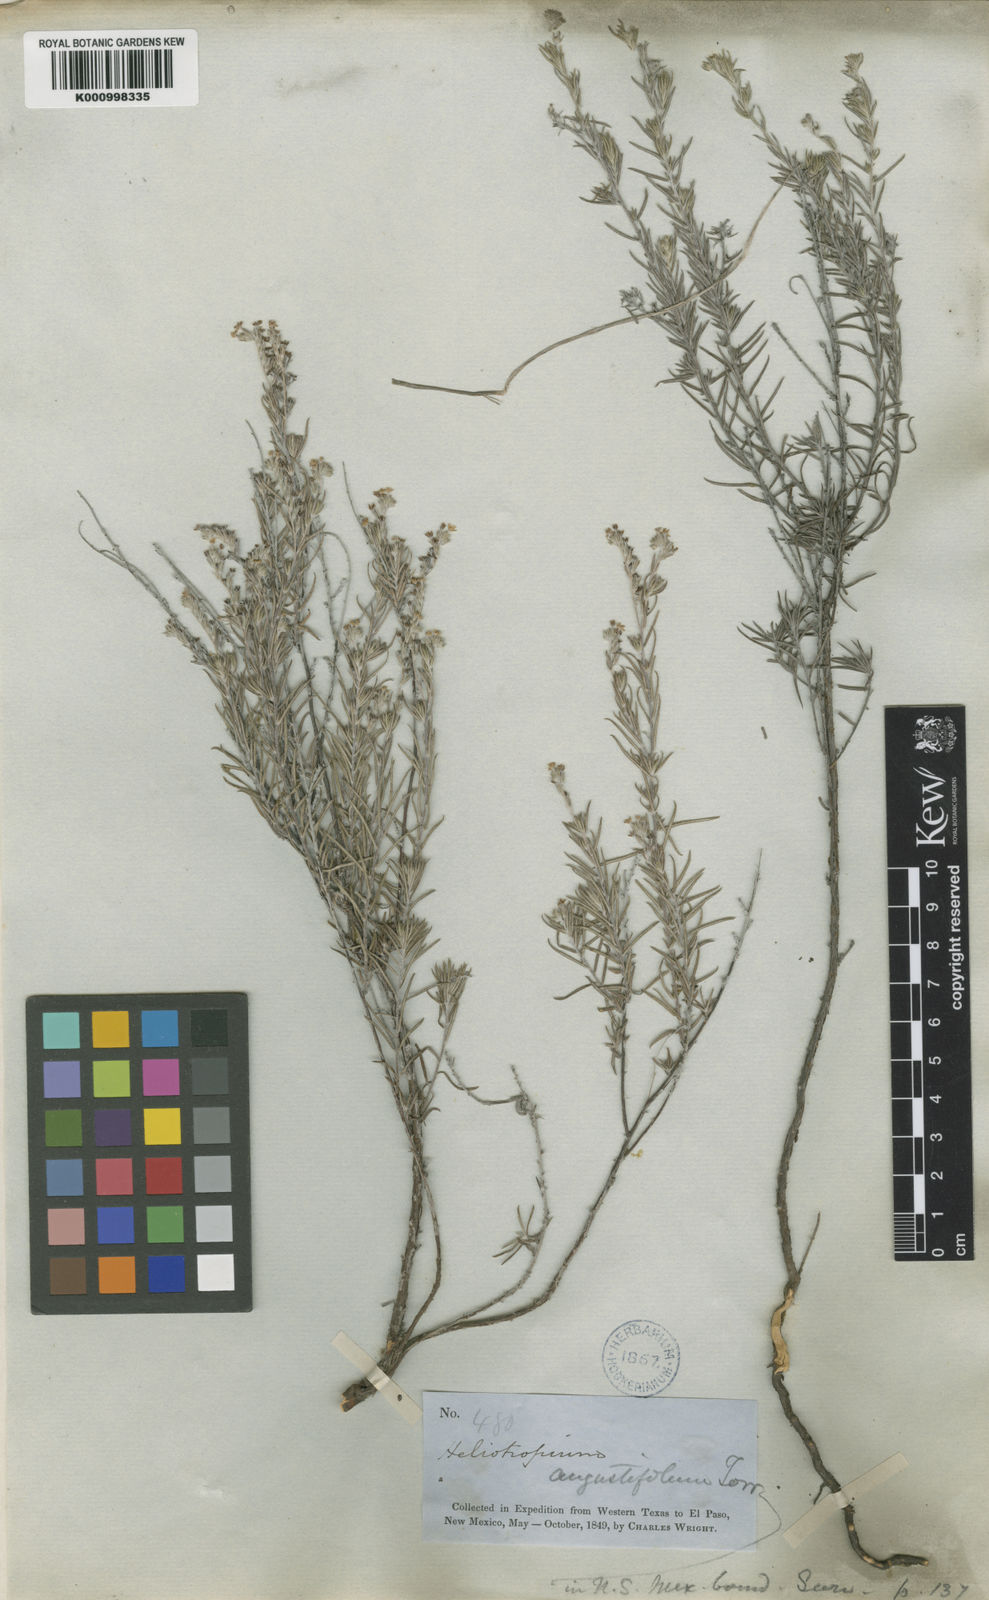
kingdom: Plantae
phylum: Tracheophyta
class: Magnoliopsida
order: Boraginales
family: Heliotropiaceae
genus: Euploca
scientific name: Euploca torreyi
